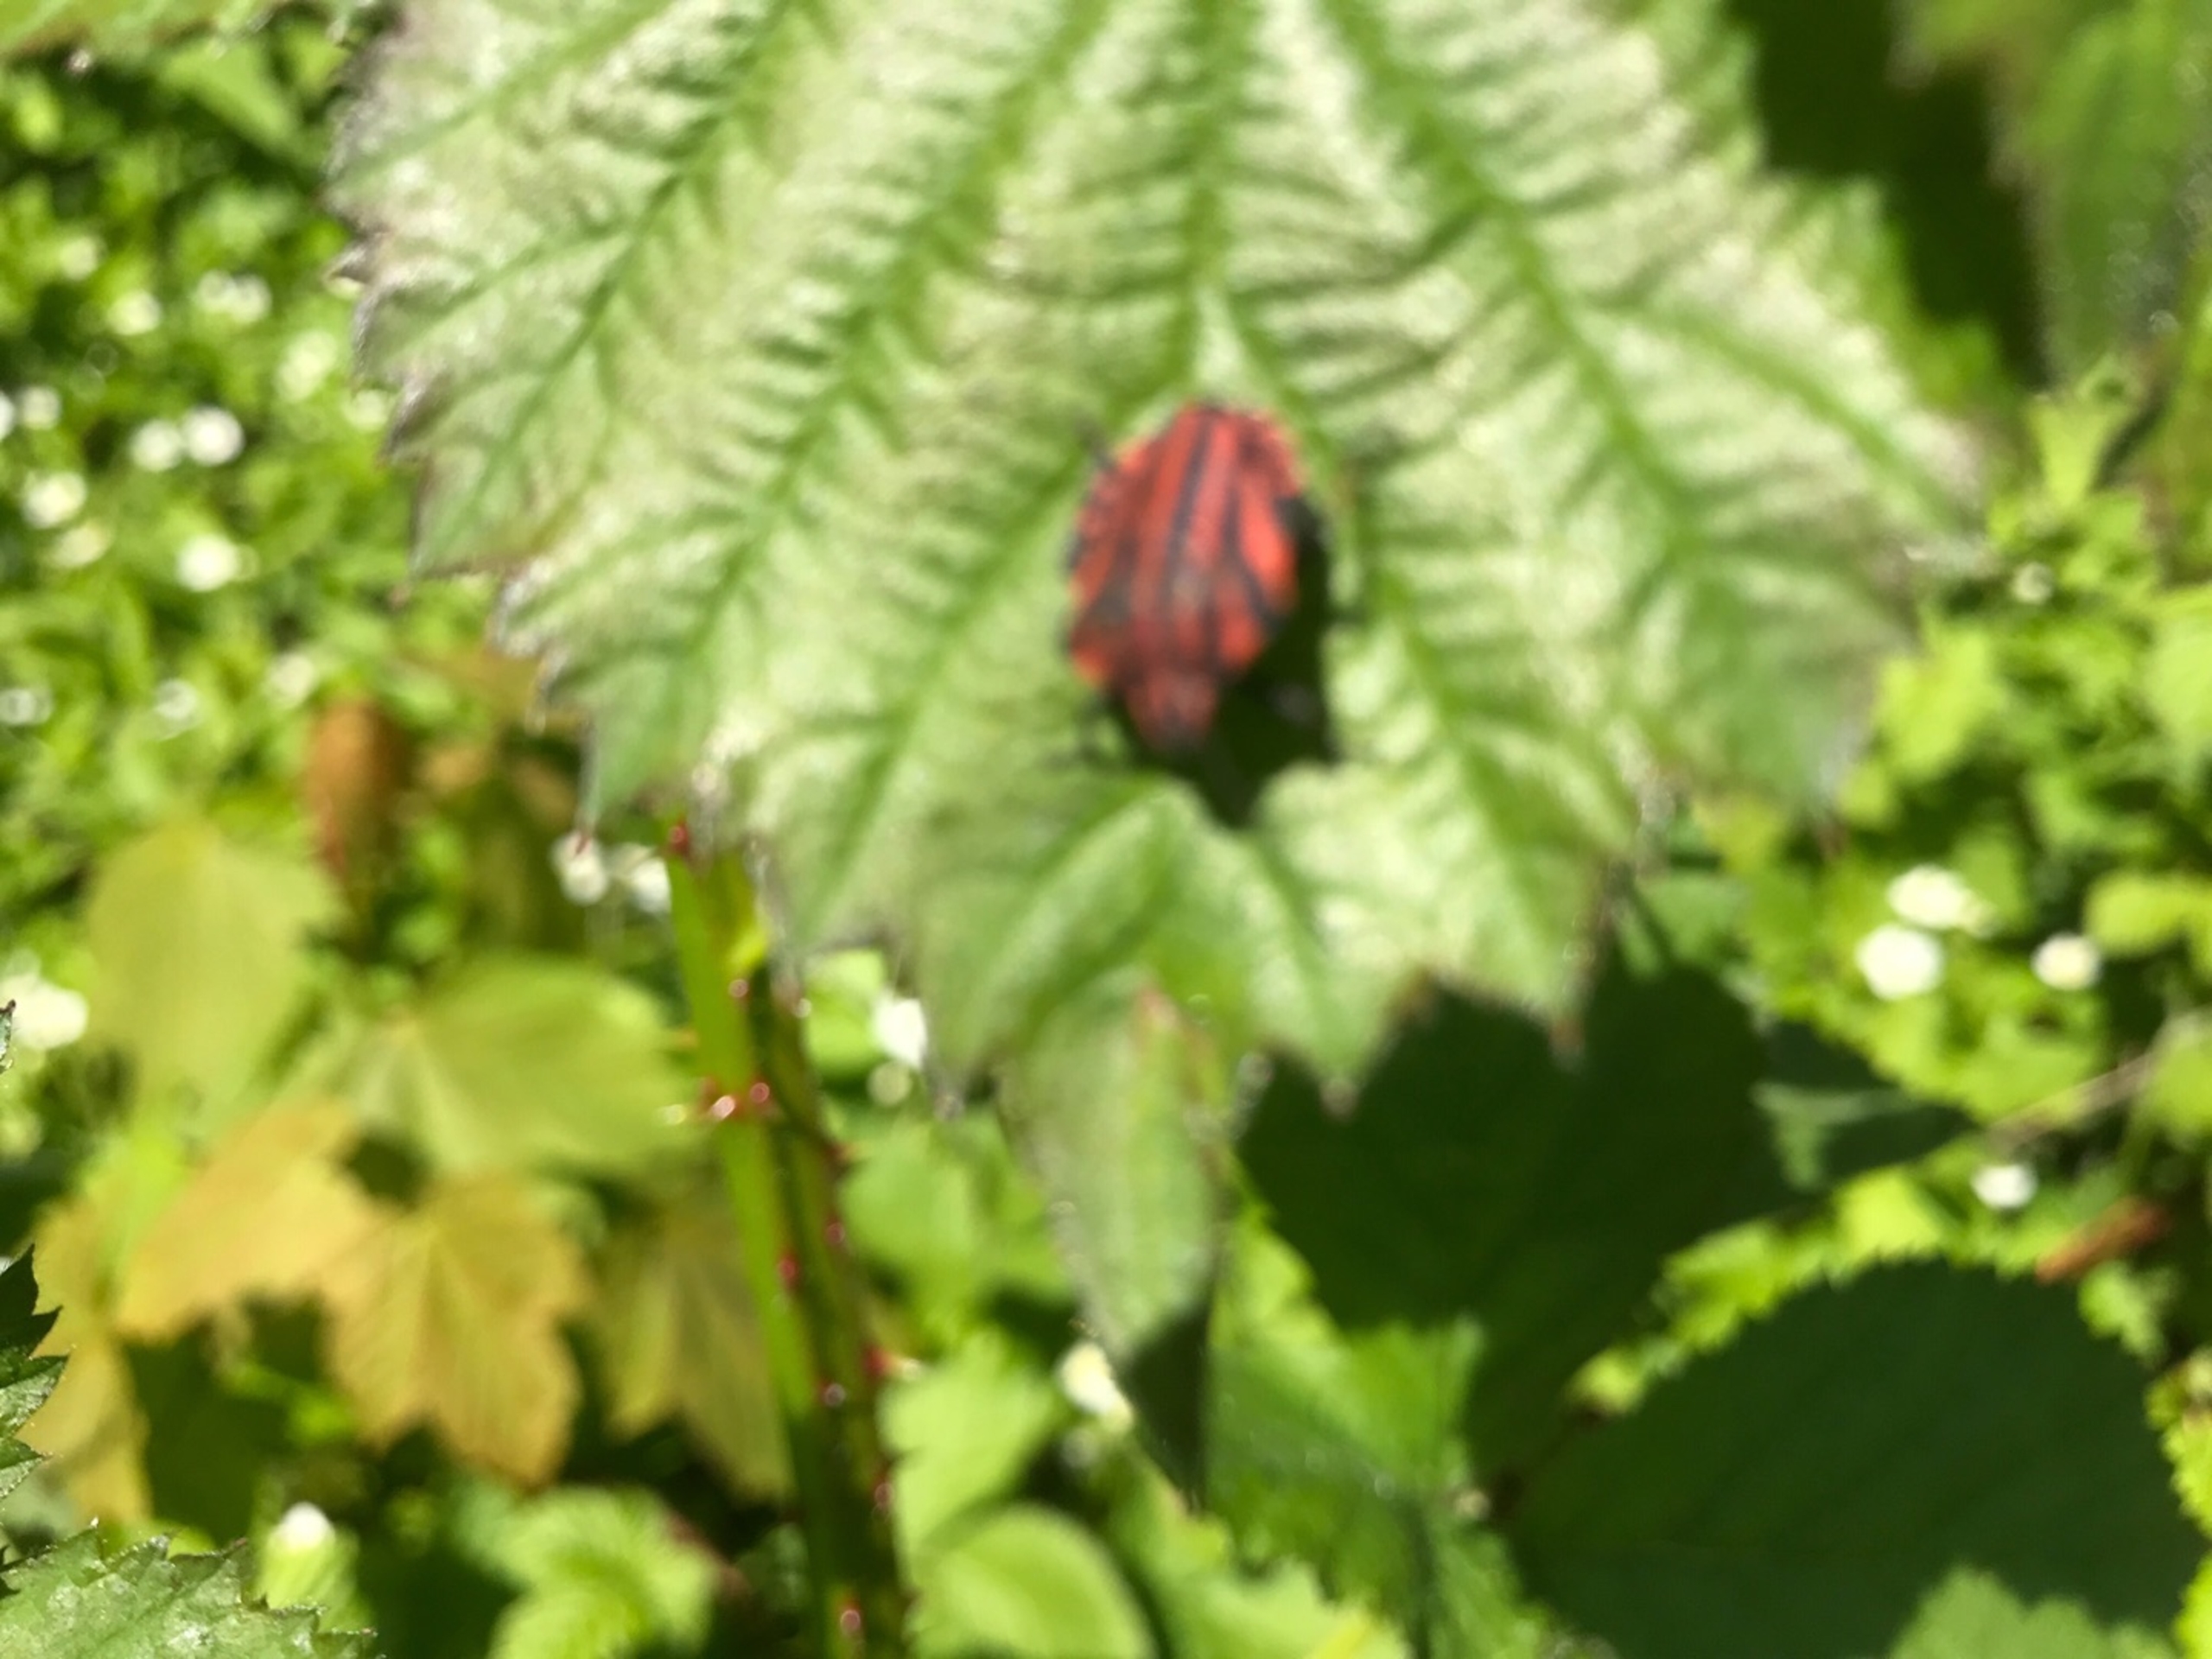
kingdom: Animalia
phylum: Arthropoda
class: Insecta
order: Hemiptera
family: Pentatomidae
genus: Graphosoma
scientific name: Graphosoma italicum
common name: Stribetæge
